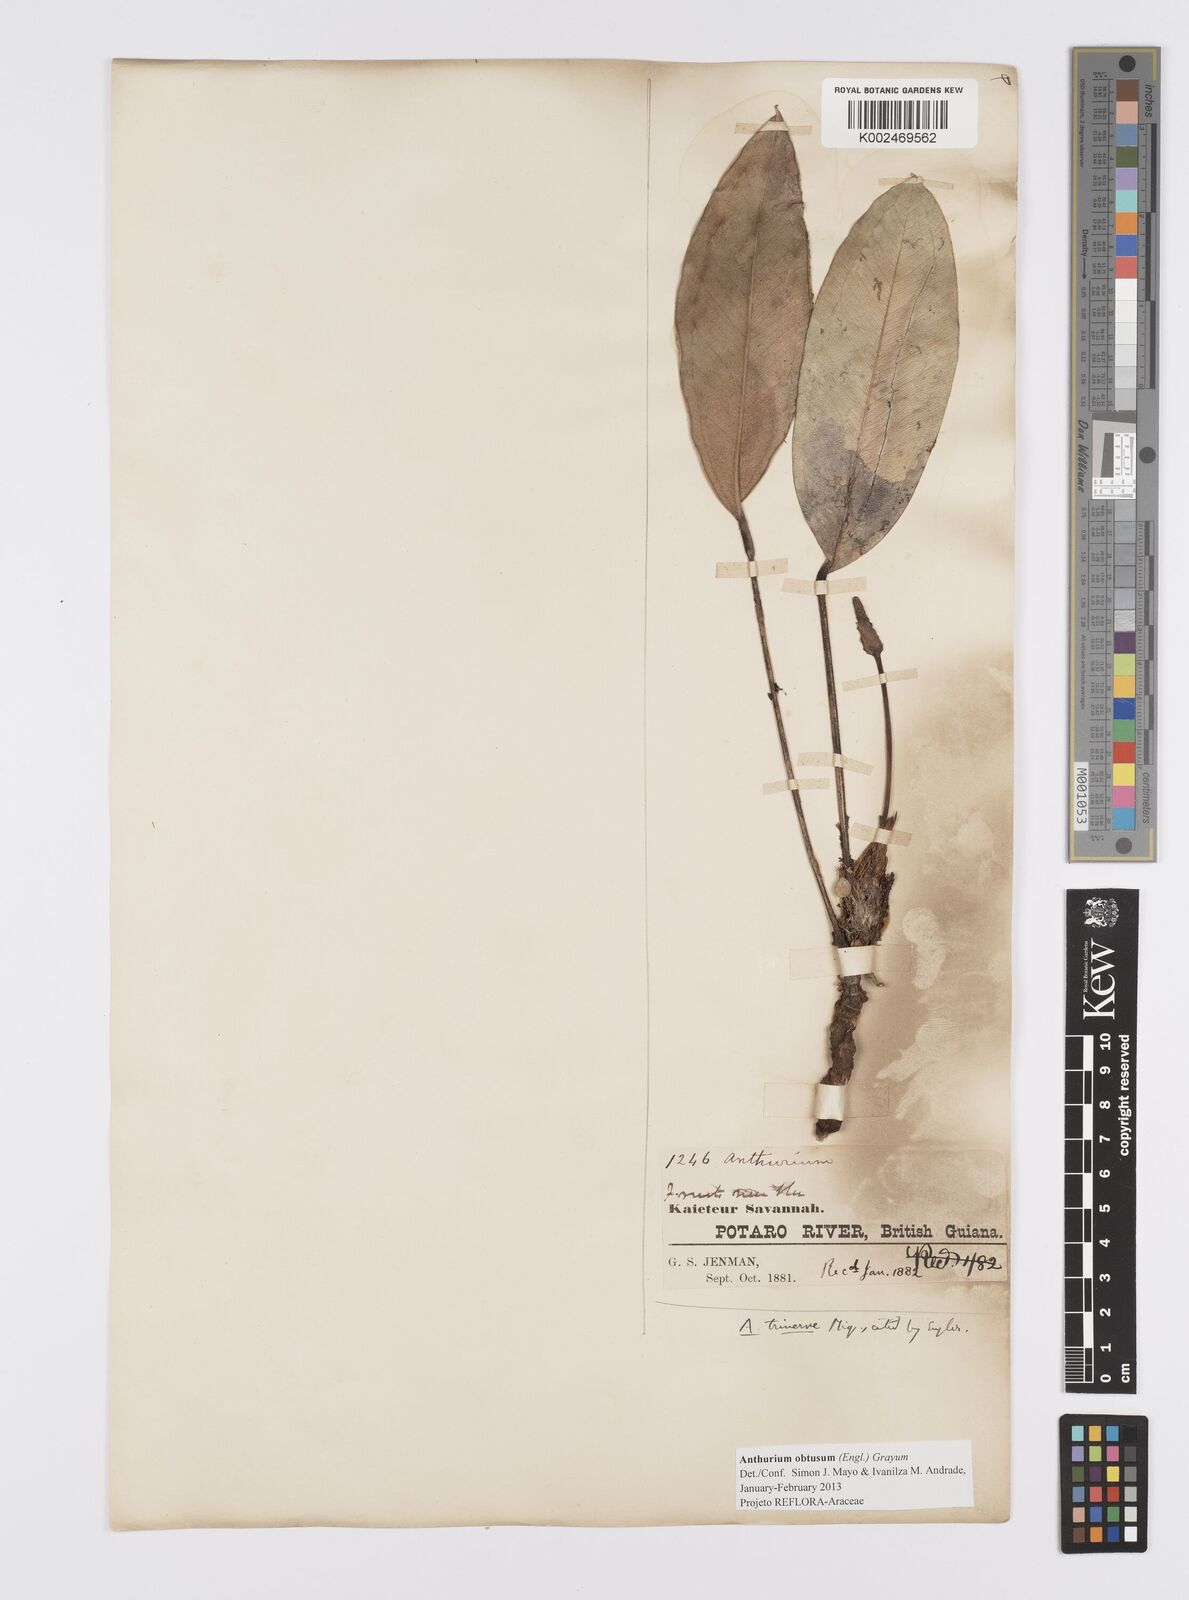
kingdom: Plantae
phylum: Tracheophyta
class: Liliopsida
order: Alismatales
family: Araceae
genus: Anthurium
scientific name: Anthurium obtusum
